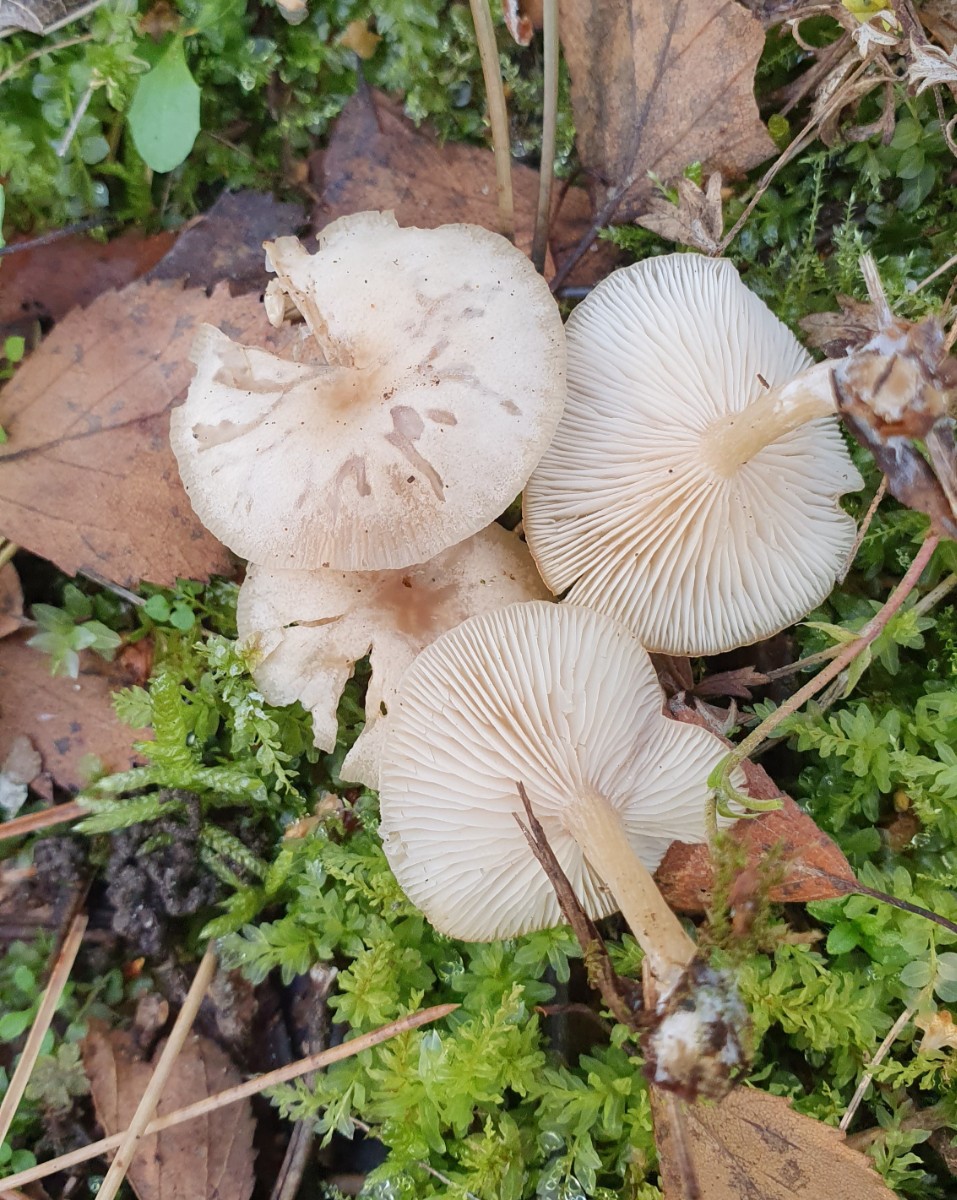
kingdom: Fungi
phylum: Basidiomycota
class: Agaricomycetes
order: Agaricales
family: Tricholomataceae
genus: Clitocybe
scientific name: Clitocybe fragrans
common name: vellugtende tragthat
